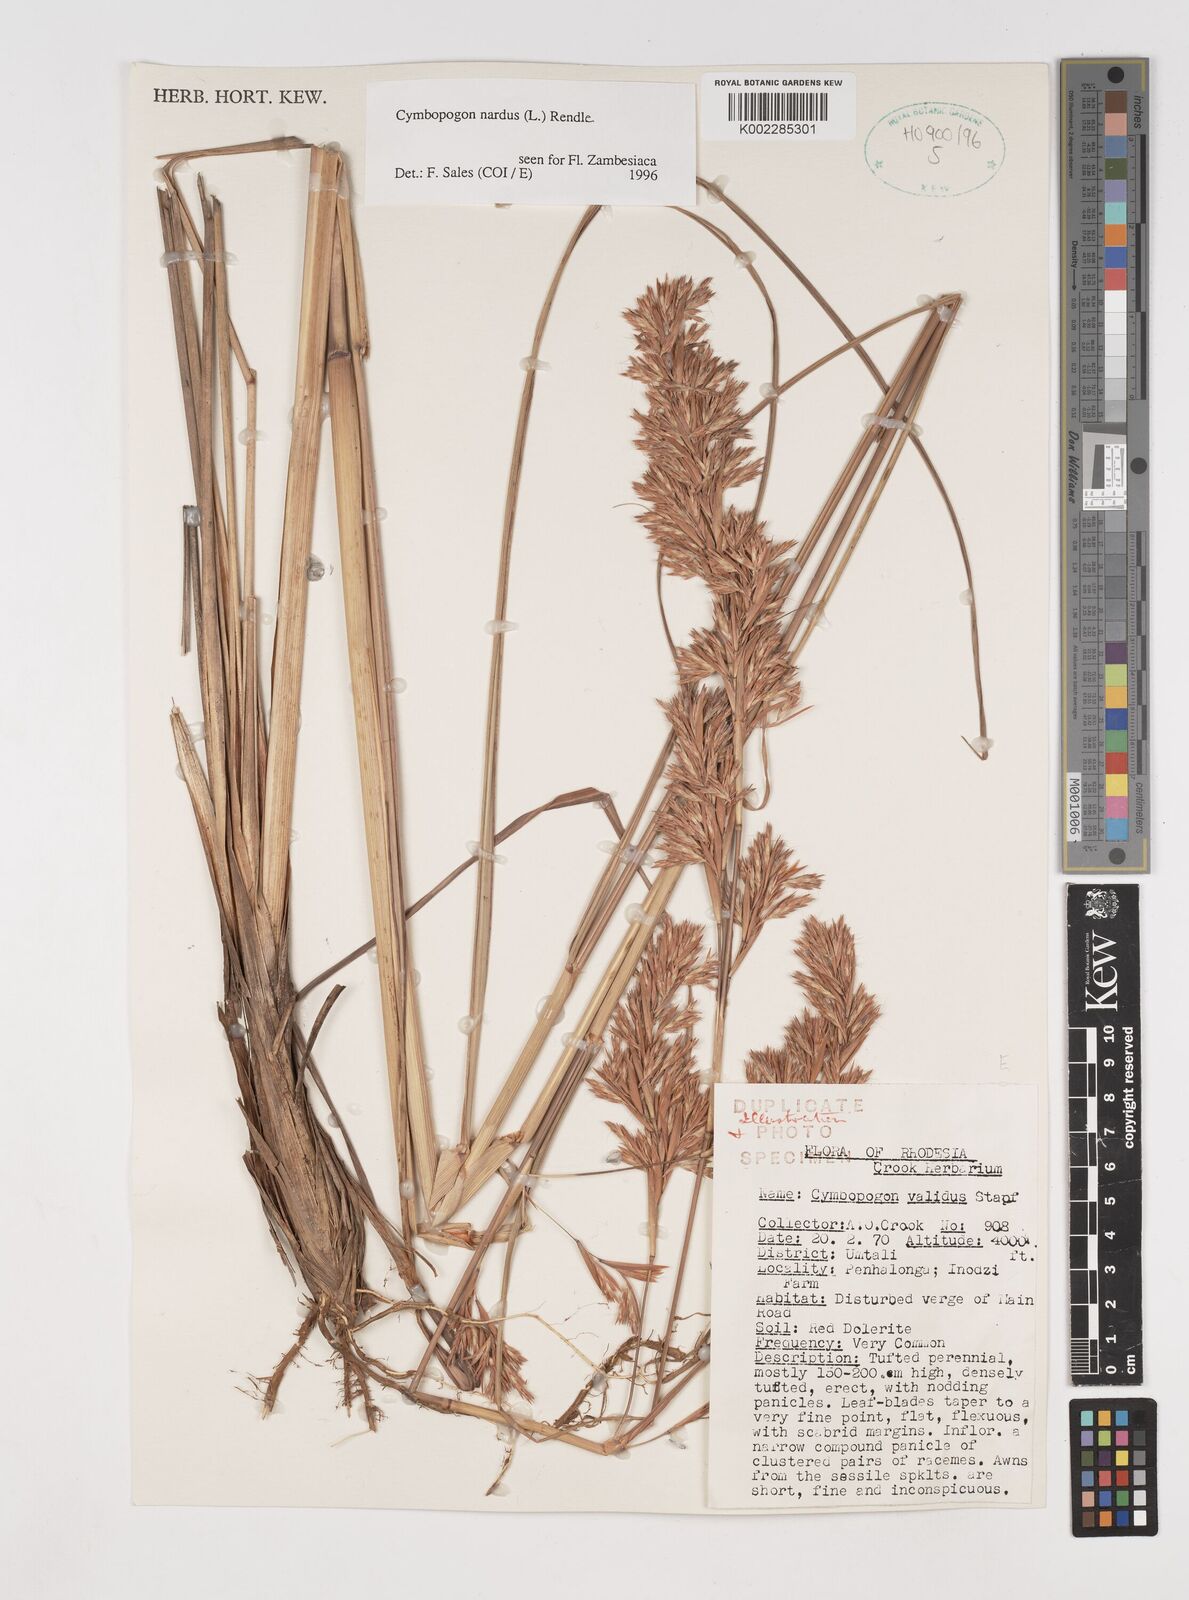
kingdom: Plantae
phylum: Tracheophyta
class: Liliopsida
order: Poales
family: Poaceae
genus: Cymbopogon
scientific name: Cymbopogon nardus
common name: Giant turpentine grass
